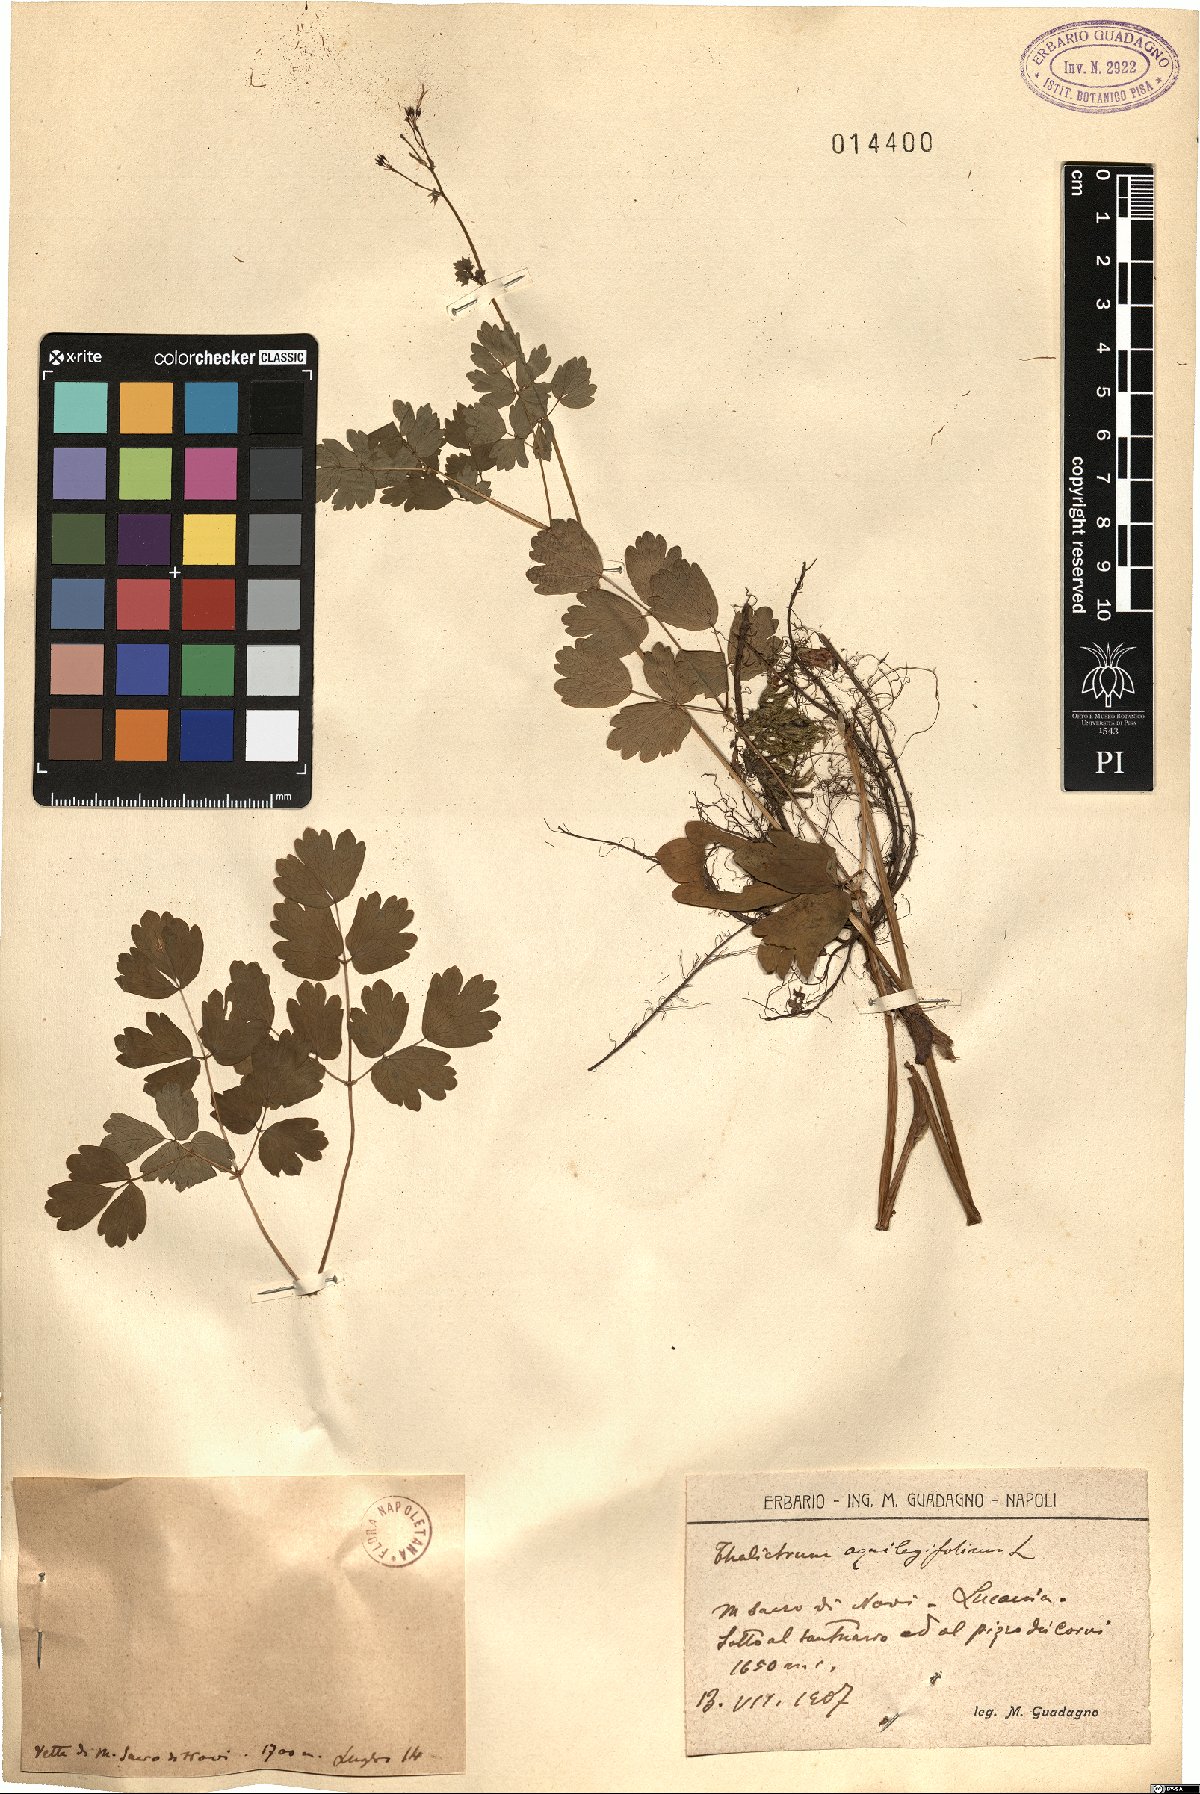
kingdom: Plantae
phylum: Tracheophyta
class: Magnoliopsida
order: Ranunculales
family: Ranunculaceae
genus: Thalictrum
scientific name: Thalictrum aquilegiifolium
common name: French meadow-rue
